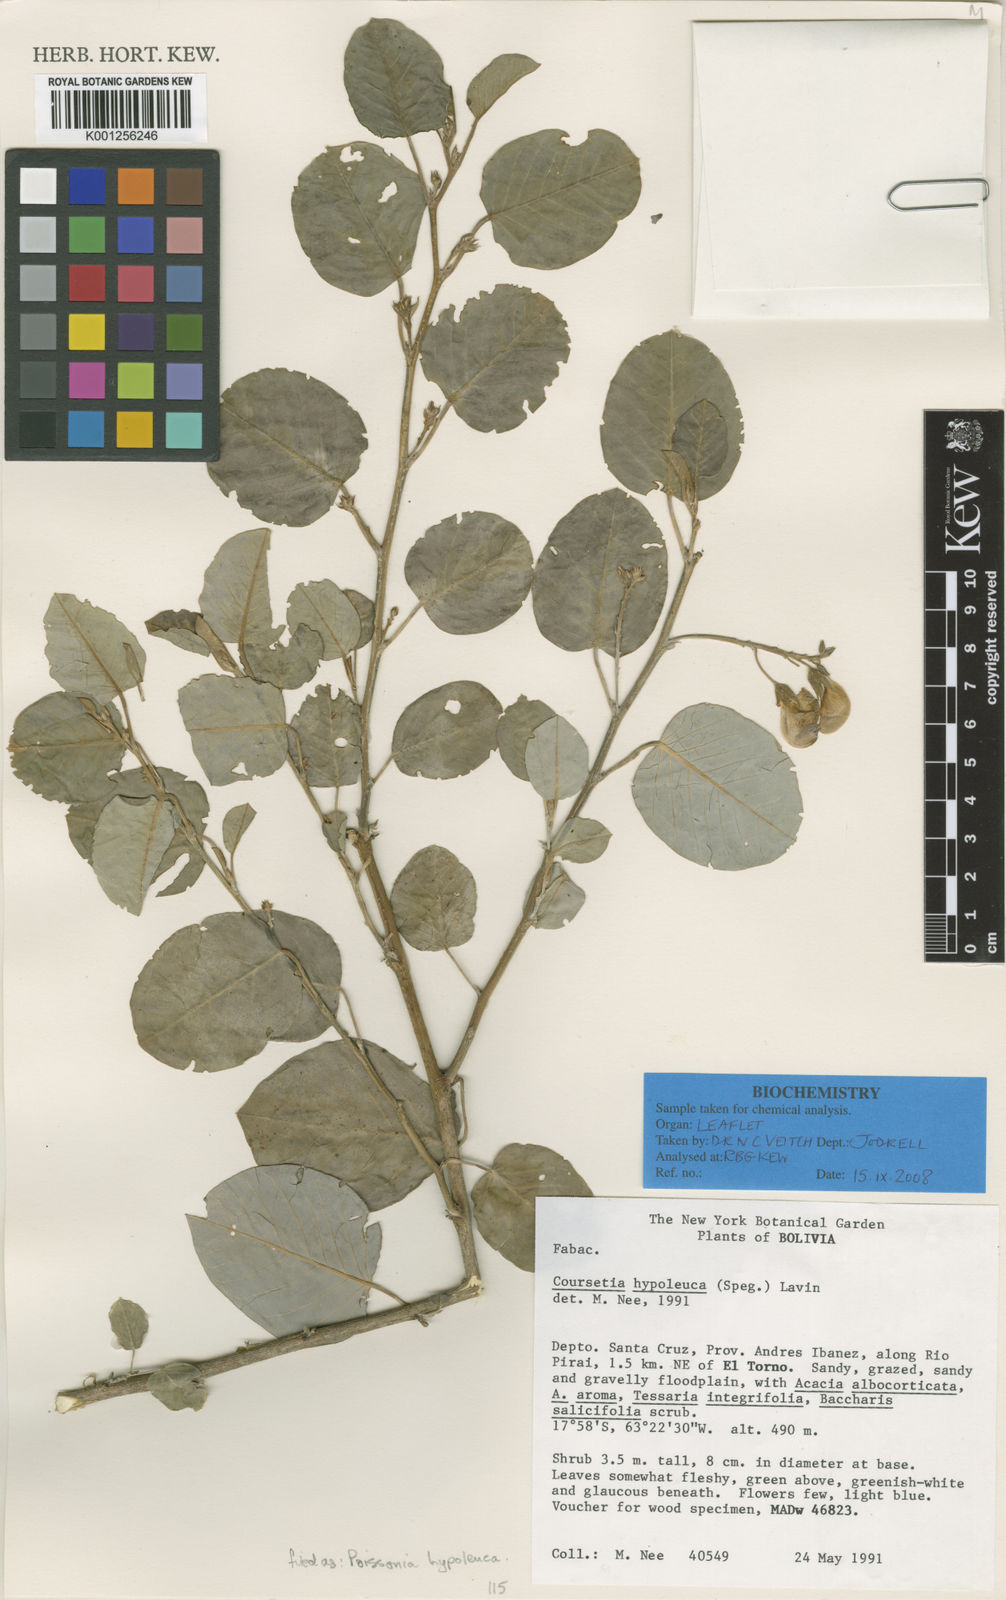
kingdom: Plantae
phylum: Tracheophyta
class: Magnoliopsida
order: Fabales
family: Fabaceae
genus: Poissonia
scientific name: Poissonia hypoleuca
